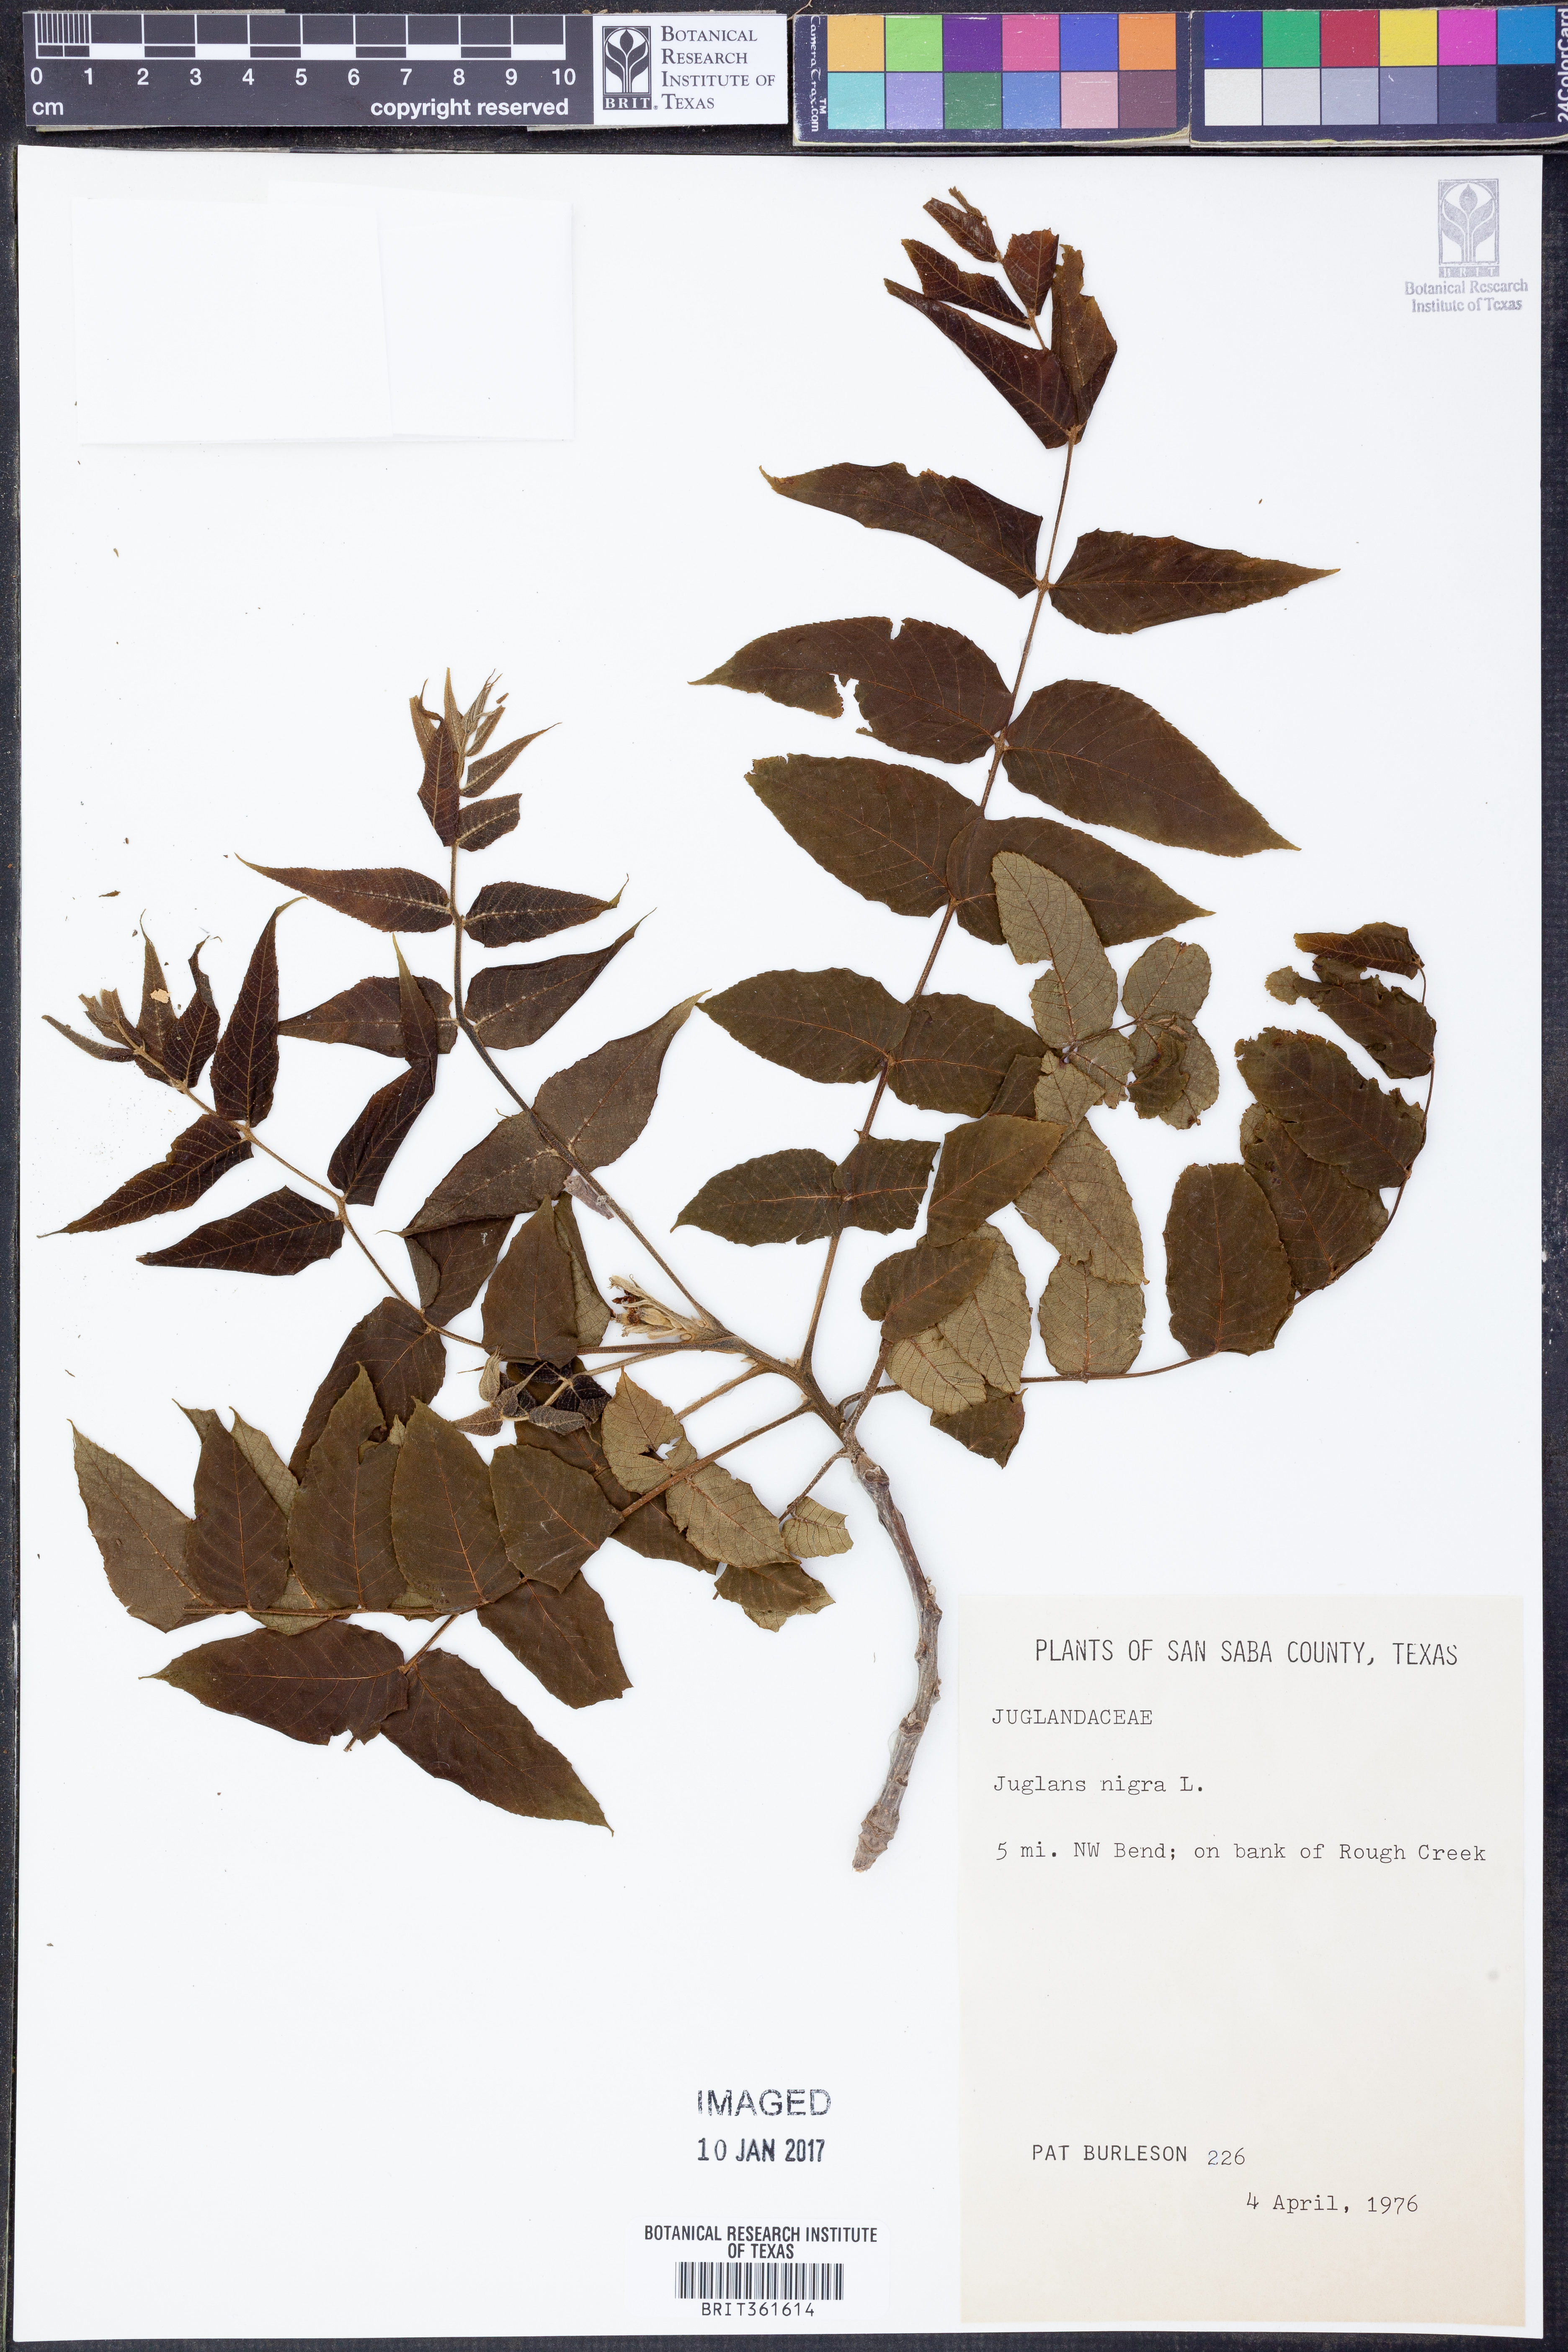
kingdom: Plantae
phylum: Tracheophyta
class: Magnoliopsida
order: Fagales
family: Juglandaceae
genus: Juglans
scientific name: Juglans nigra
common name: Black walnut
